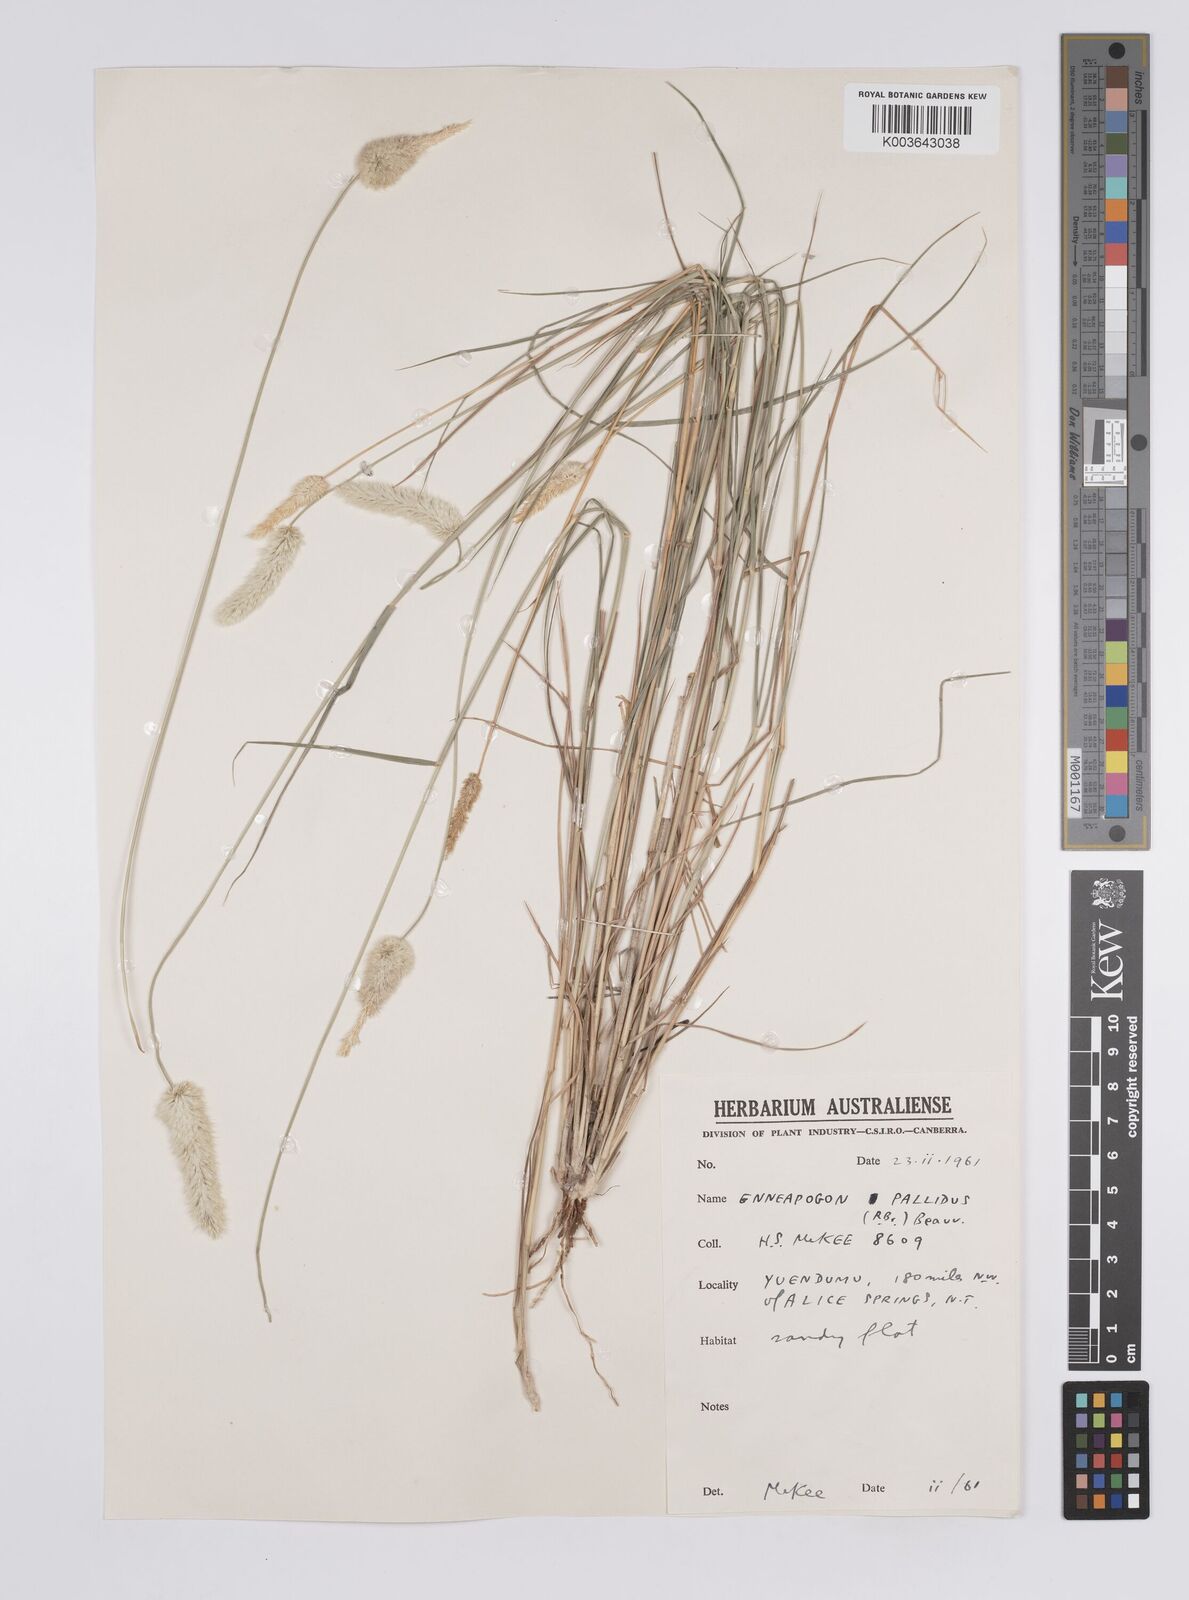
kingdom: Plantae
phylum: Tracheophyta
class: Liliopsida
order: Poales
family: Poaceae
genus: Enneapogon
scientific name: Enneapogon pallidus
